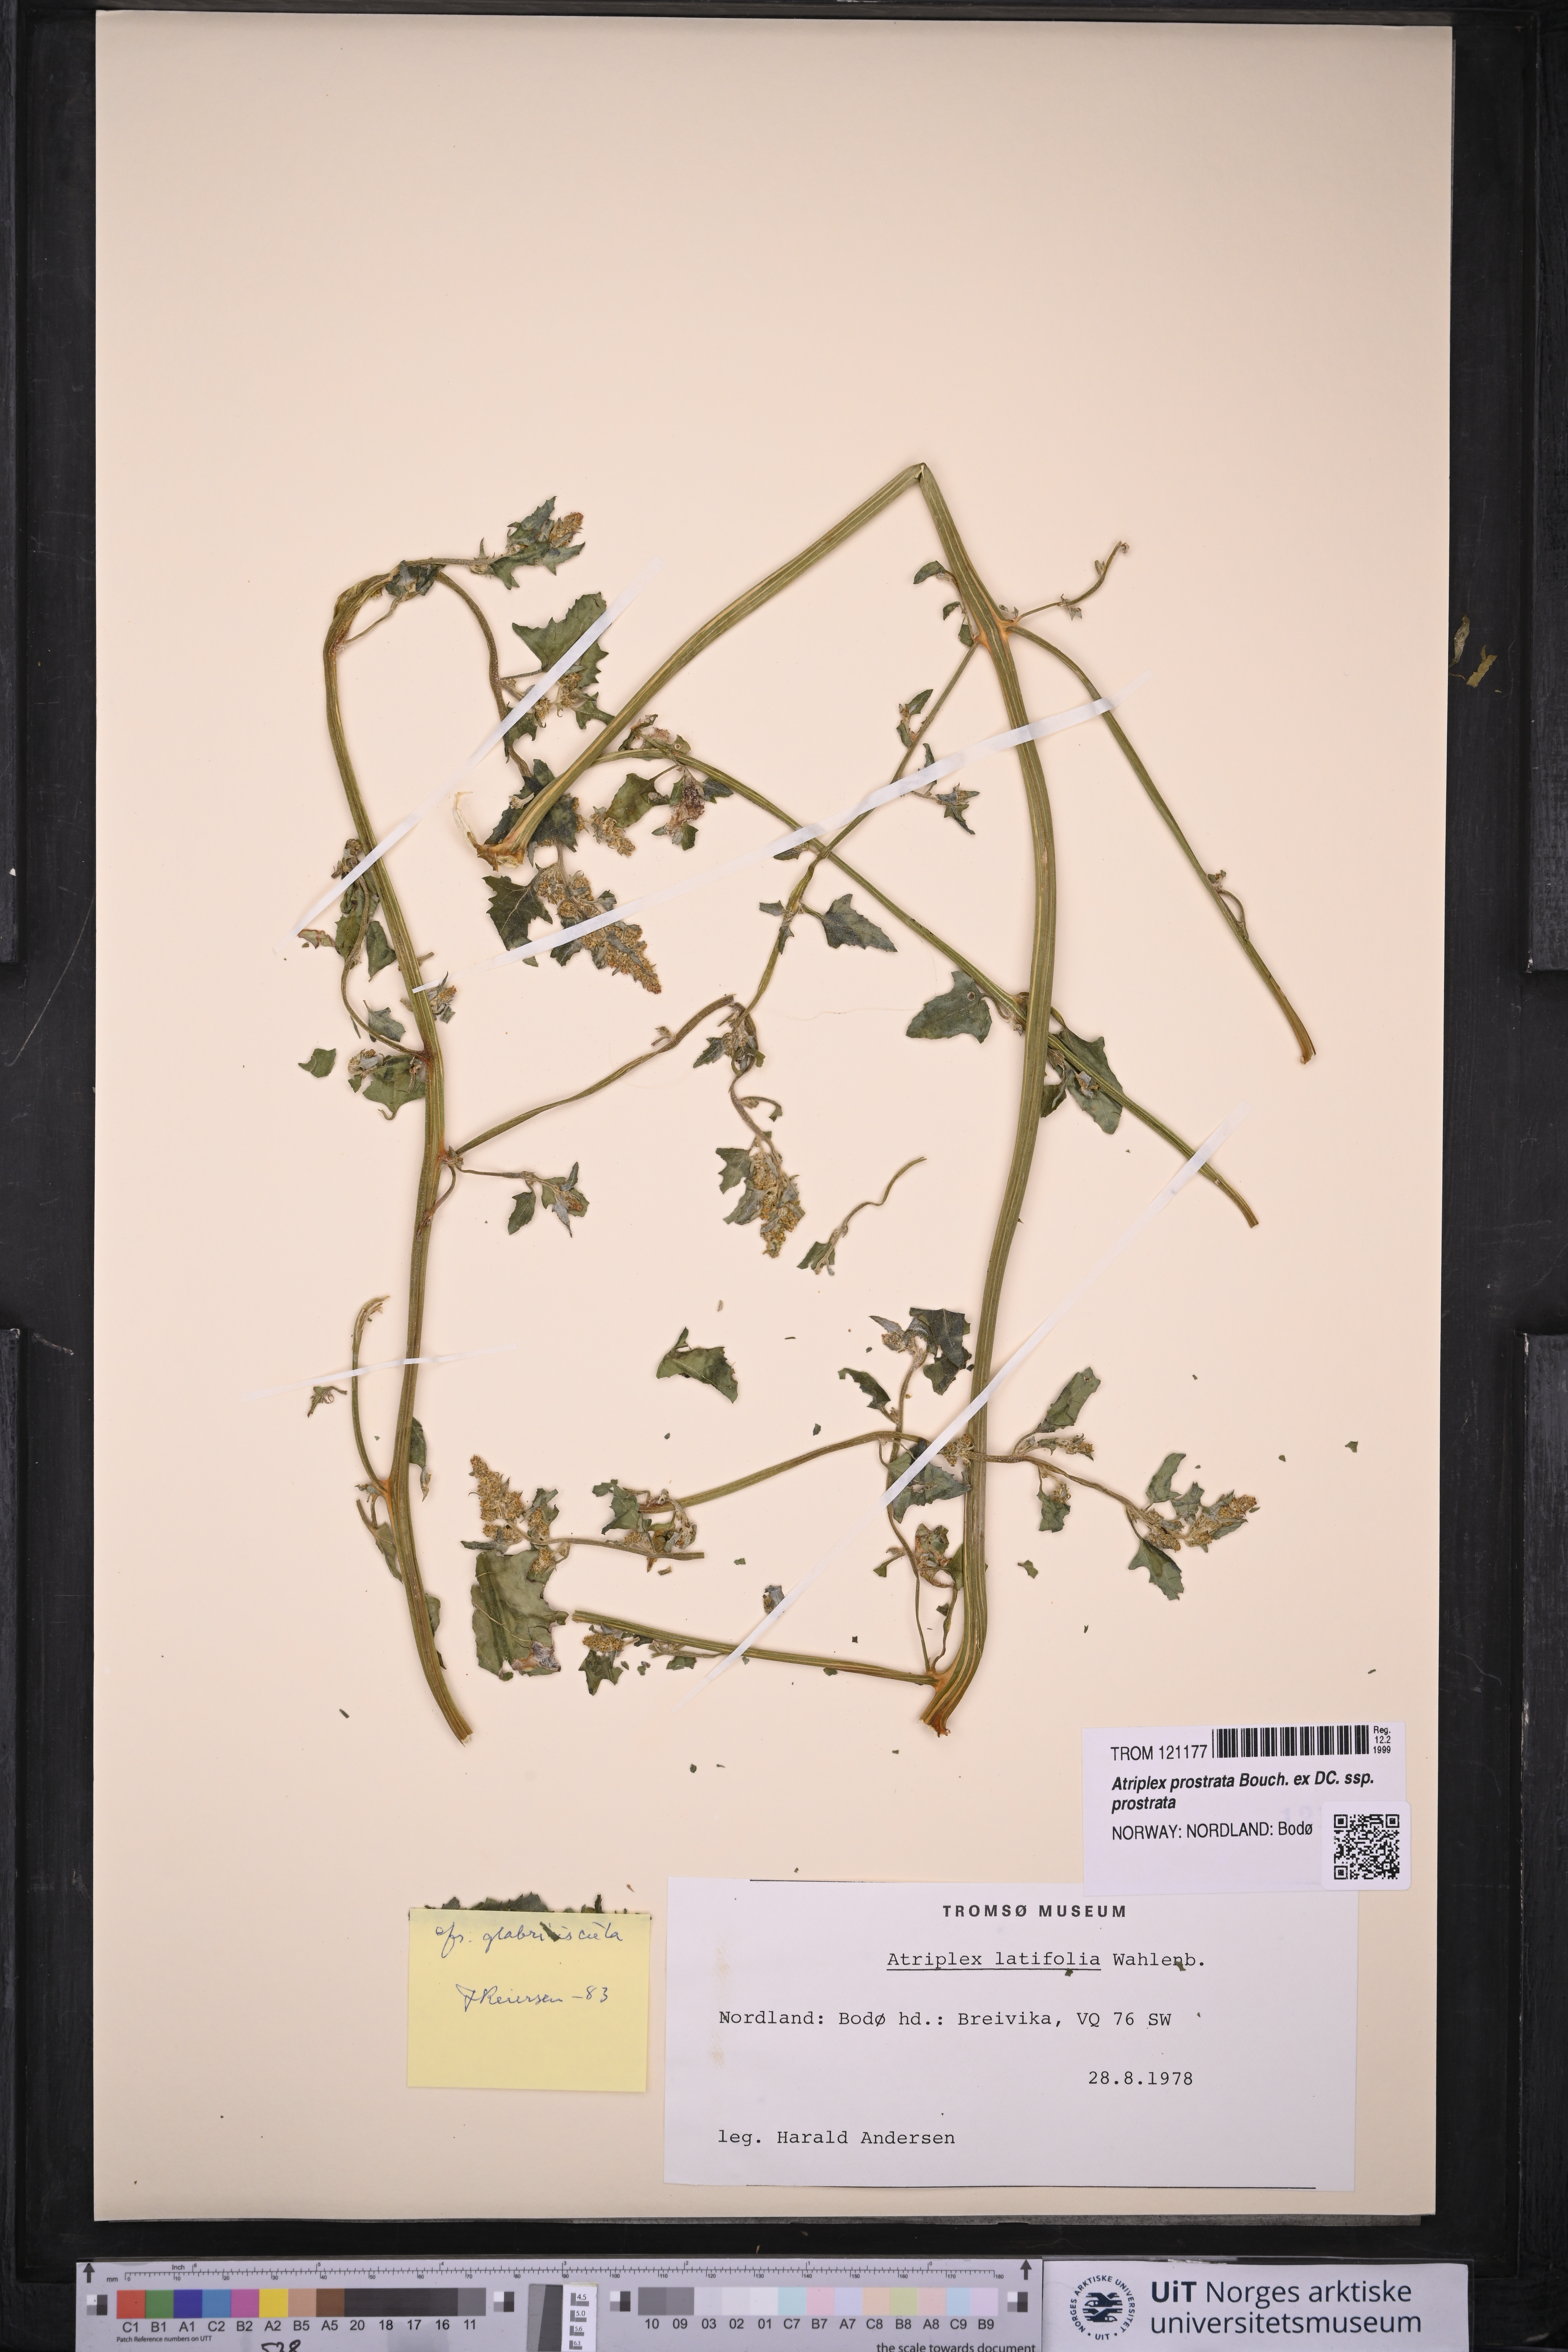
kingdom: Plantae
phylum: Tracheophyta
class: Magnoliopsida
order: Caryophyllales
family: Amaranthaceae
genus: Atriplex
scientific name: Atriplex prostrata
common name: Spear-leaved orache
